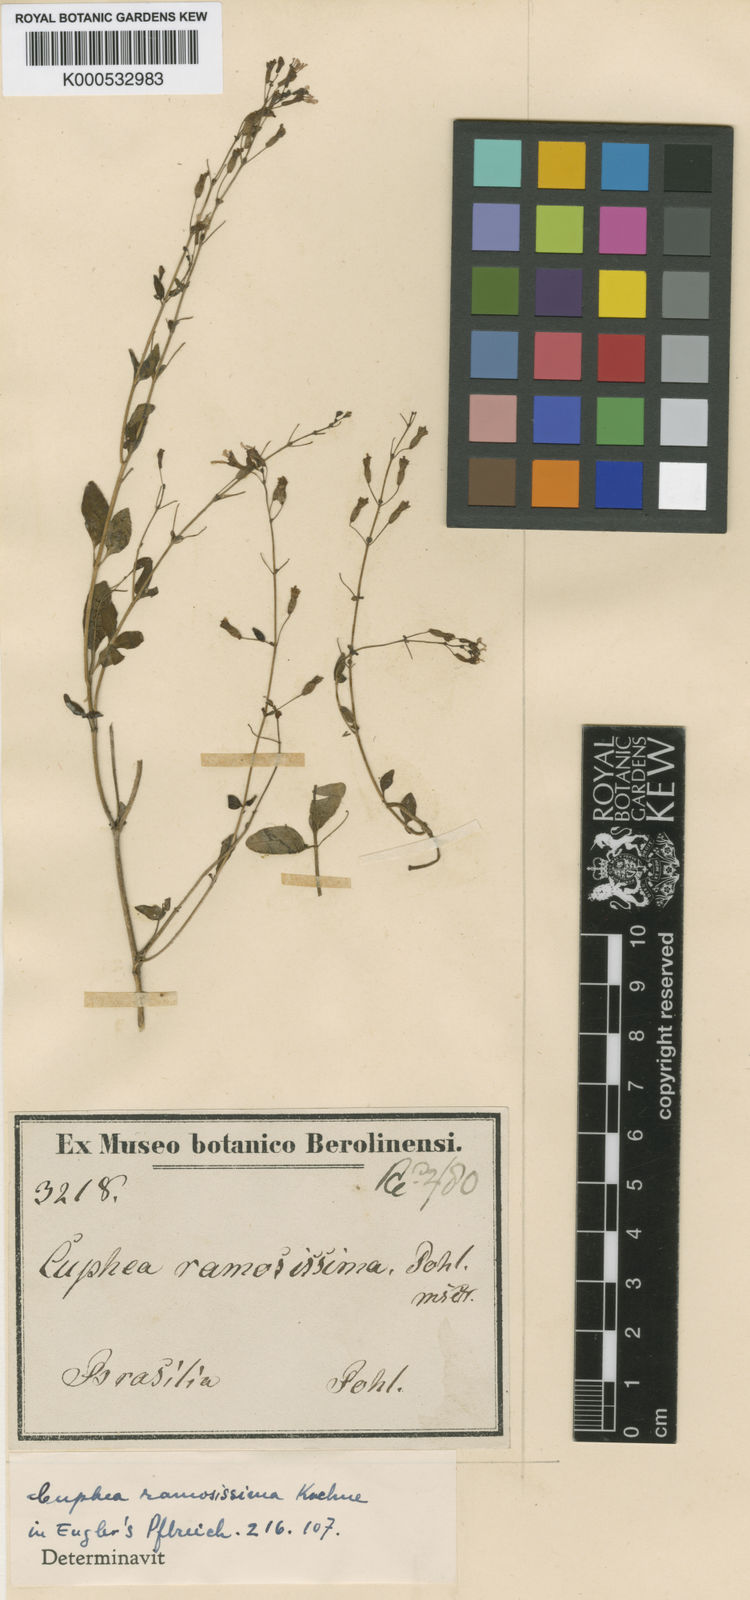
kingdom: Plantae
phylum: Tracheophyta
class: Magnoliopsida
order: Myrtales
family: Lythraceae
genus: Cuphea
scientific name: Cuphea
